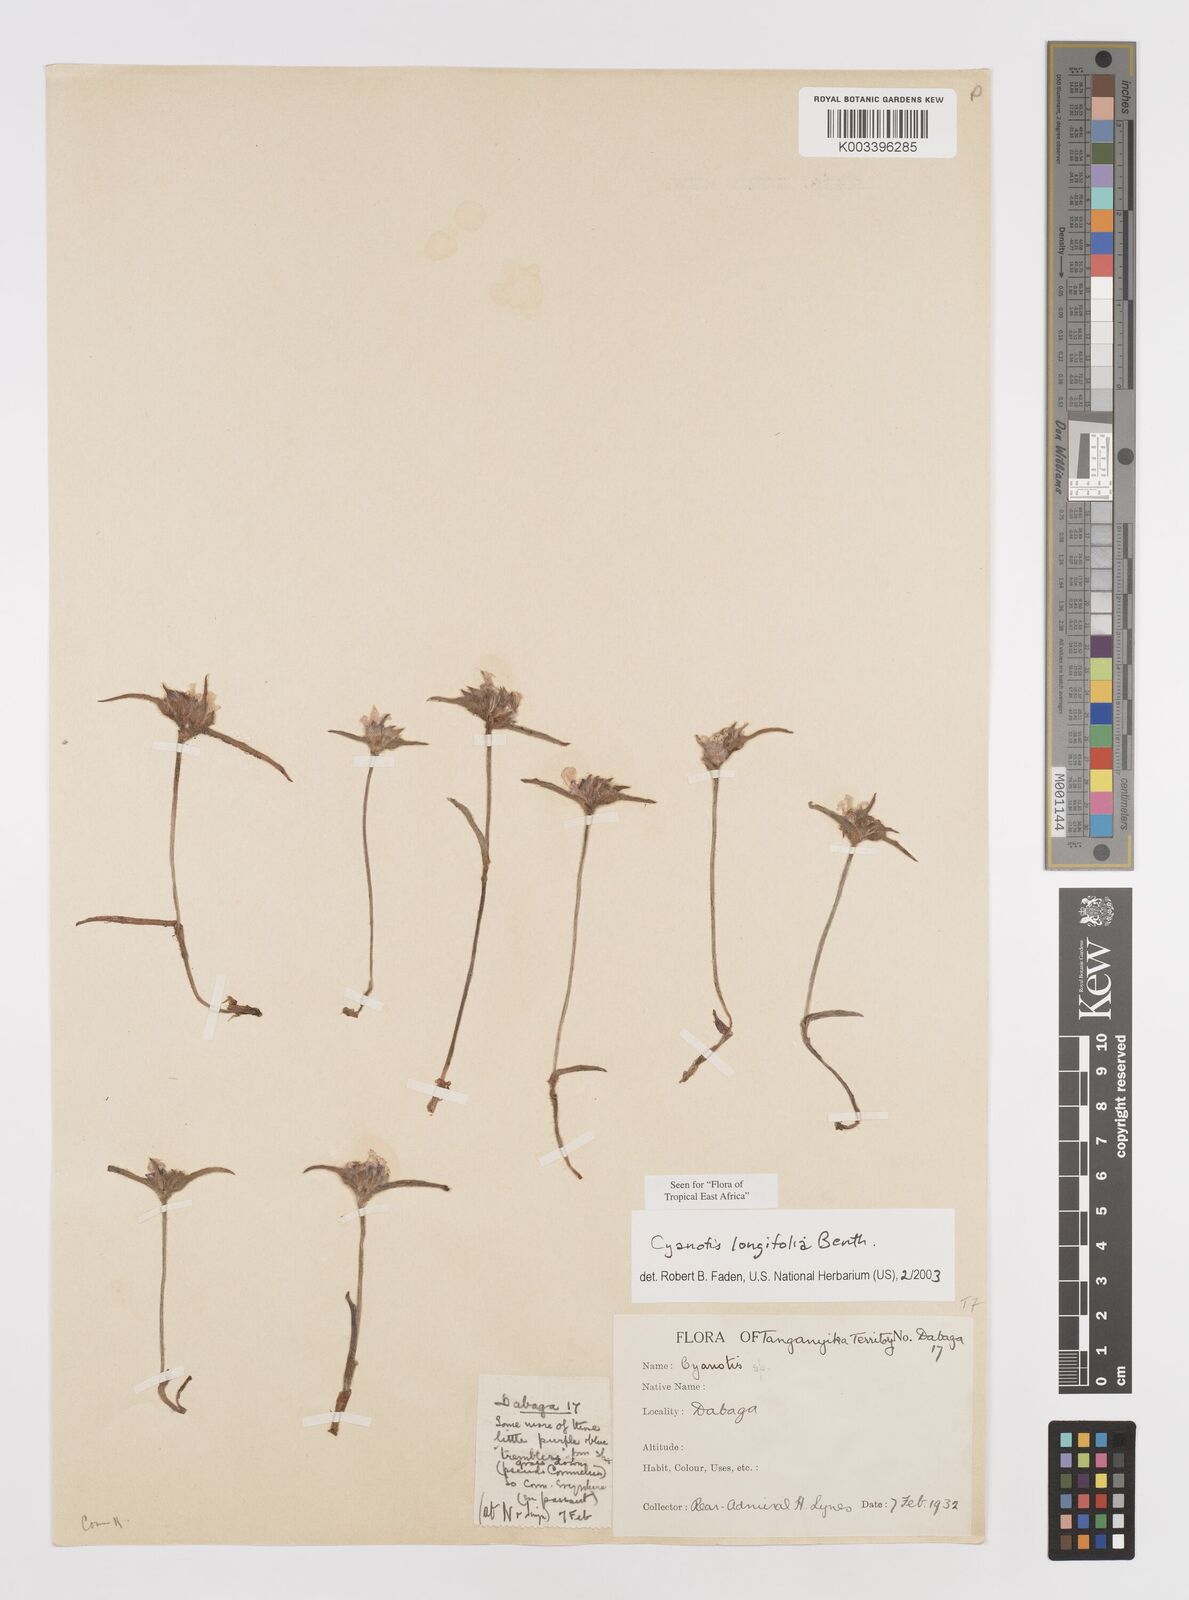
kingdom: Plantae
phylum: Tracheophyta
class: Liliopsida
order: Commelinales
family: Commelinaceae
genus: Cyanotis
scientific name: Cyanotis longifolia
